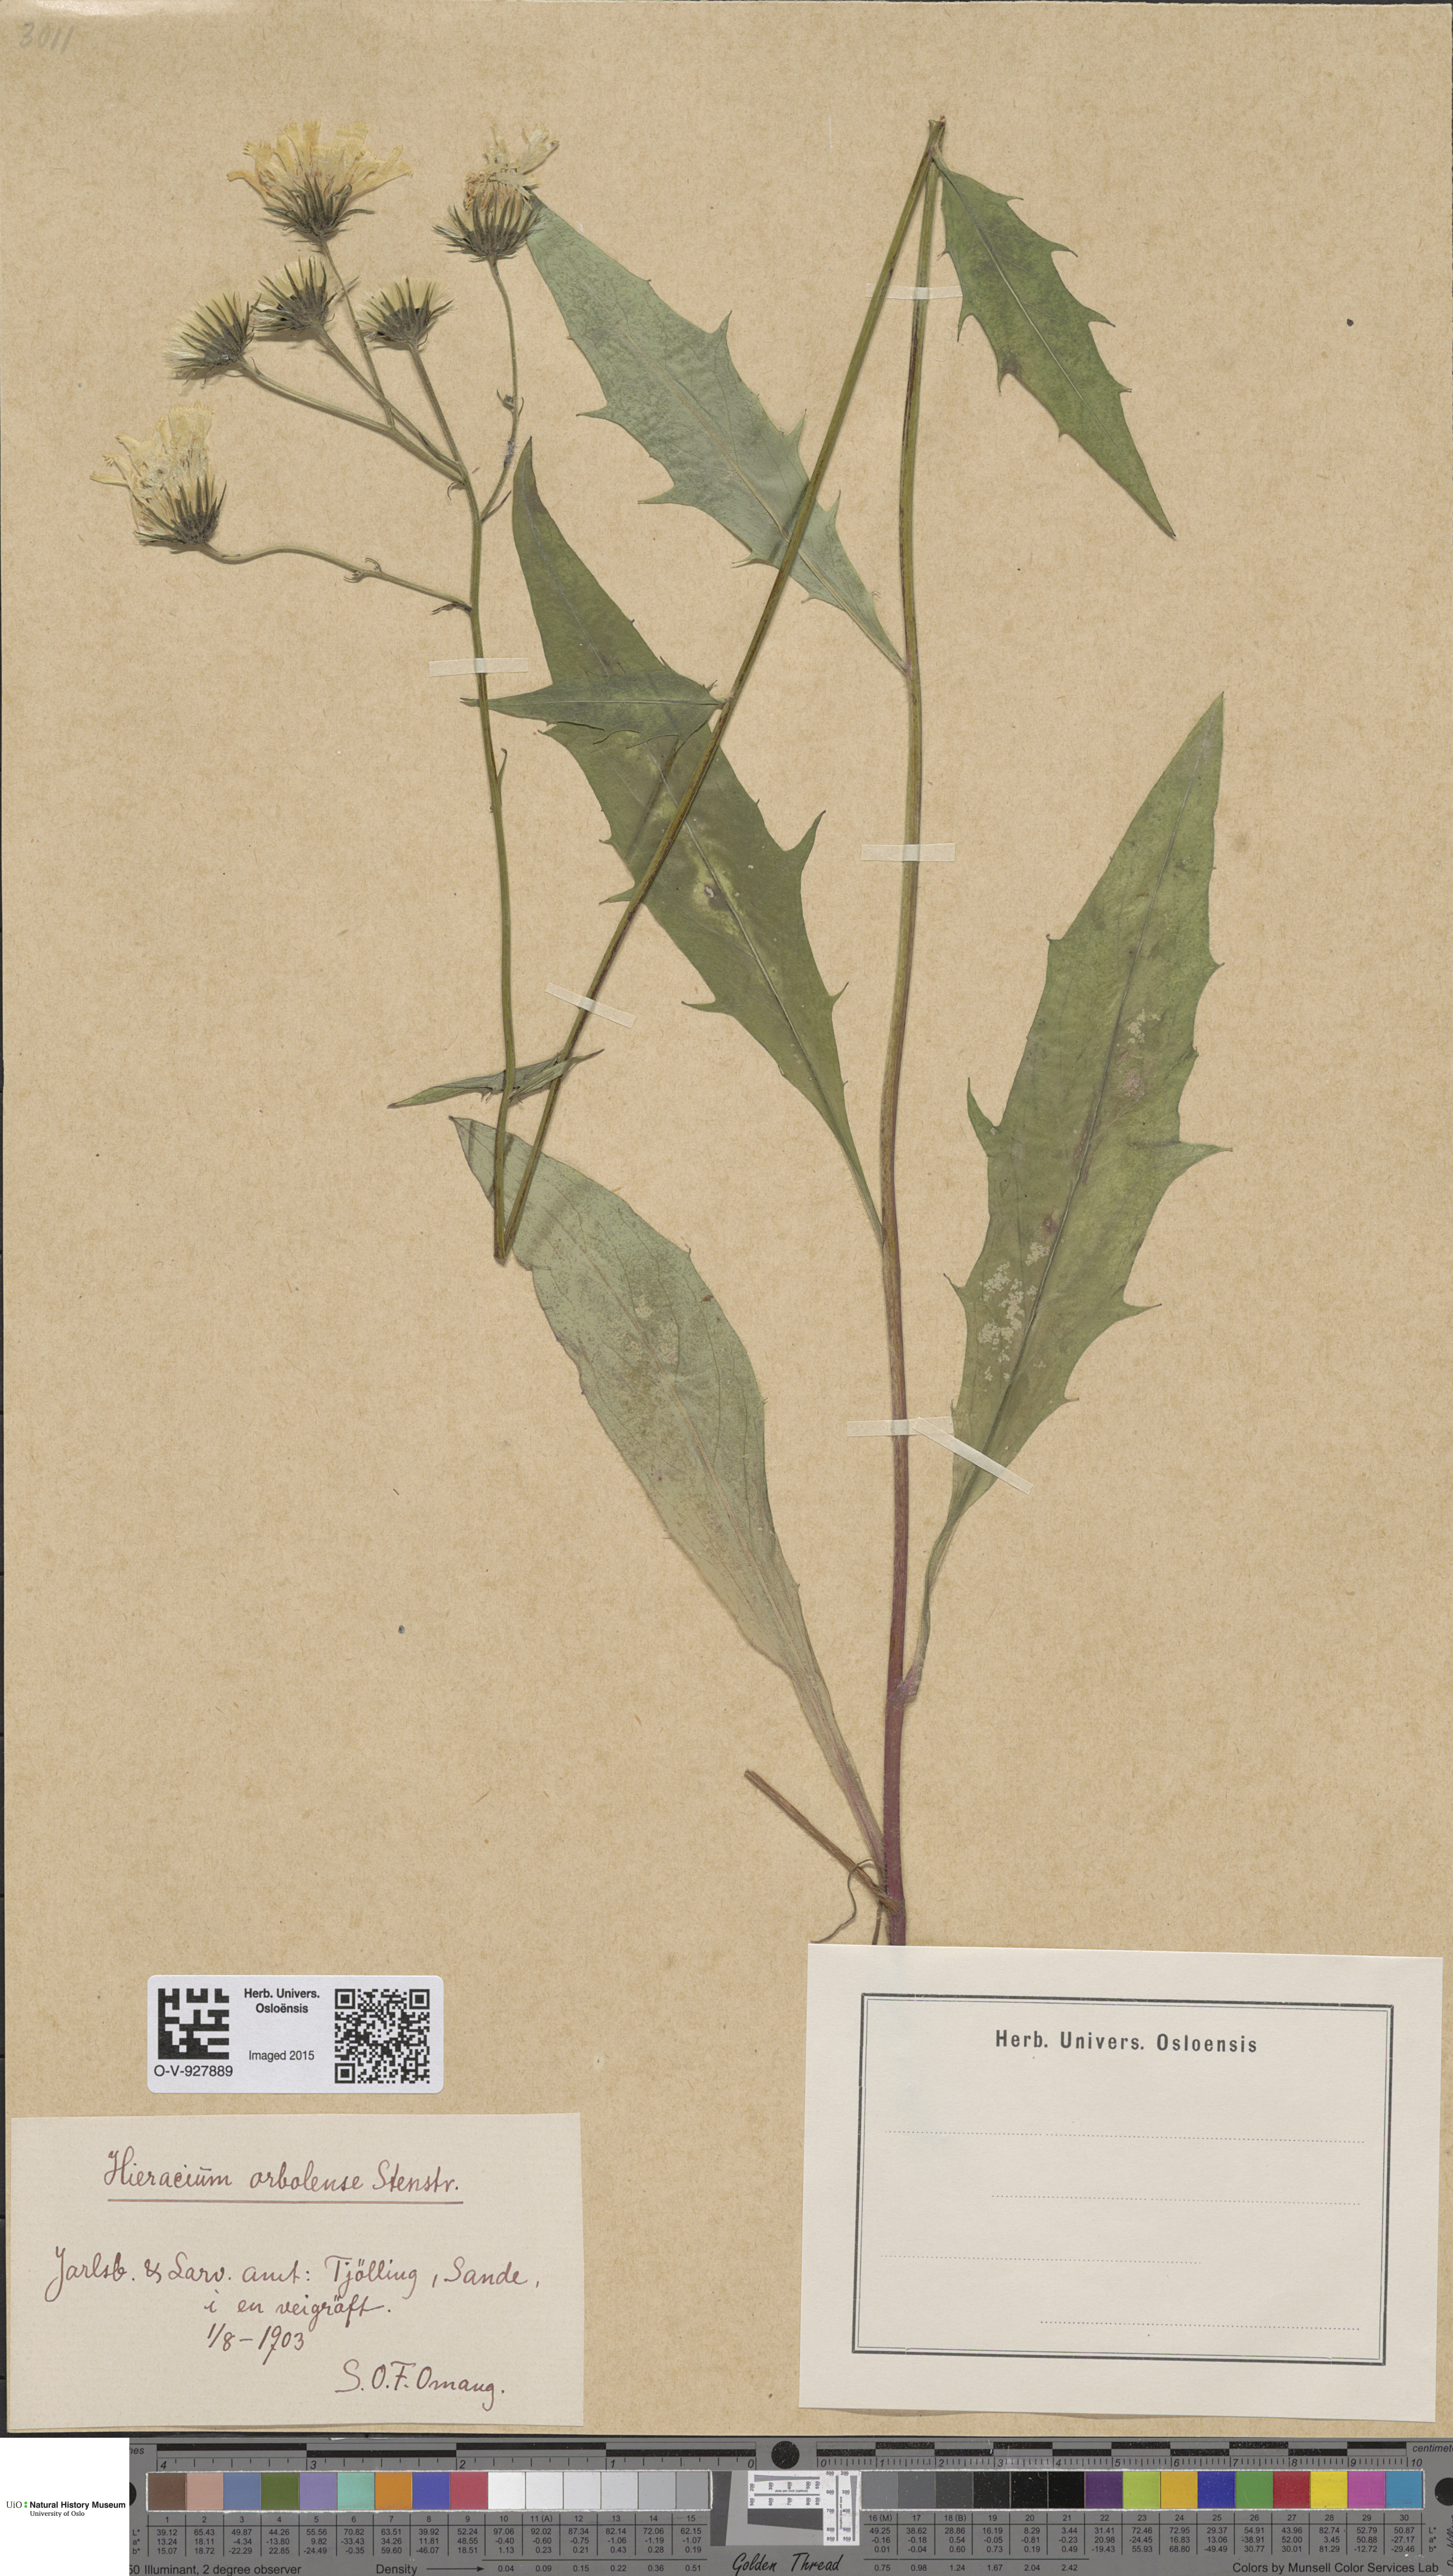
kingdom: Plantae
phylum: Tracheophyta
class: Magnoliopsida
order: Asterales
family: Asteraceae
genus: Hieracium
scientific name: Hieracium orbolense
